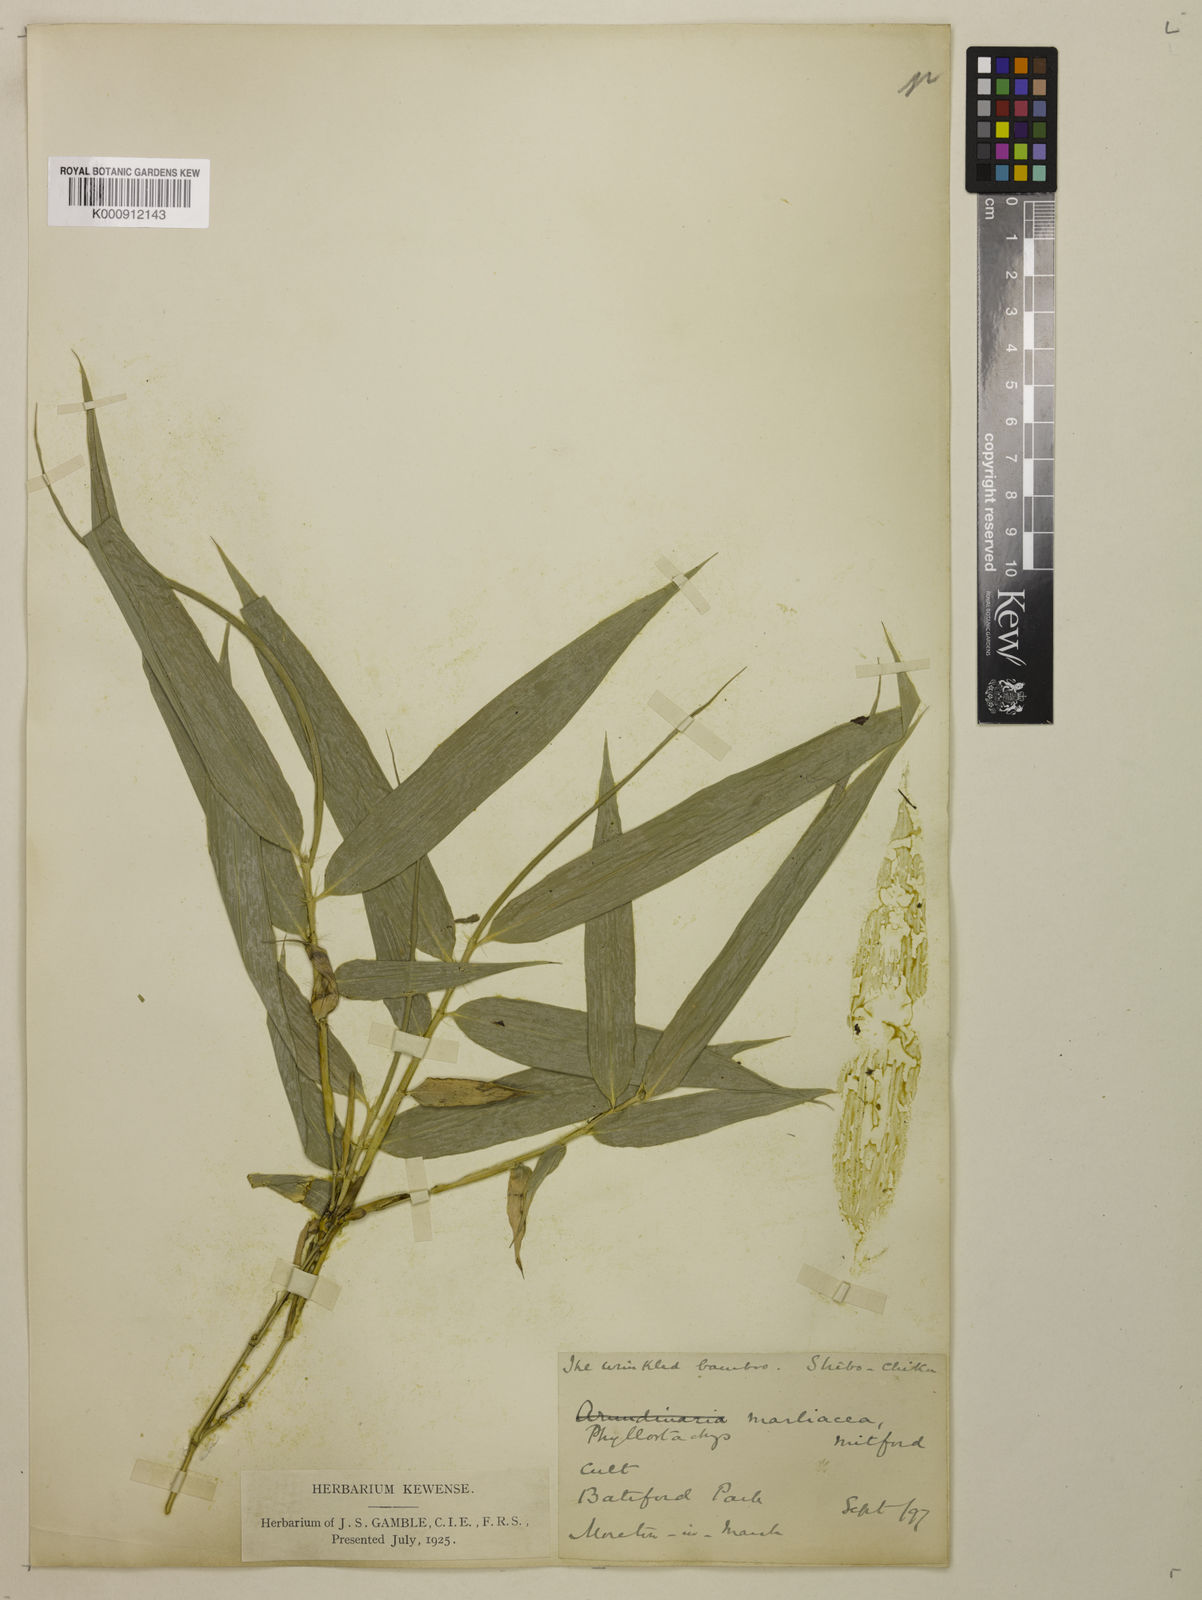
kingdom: Plantae
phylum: Tracheophyta
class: Liliopsida
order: Poales
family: Poaceae
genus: Phyllostachys
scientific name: Phyllostachys reticulata
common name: Bamboo
